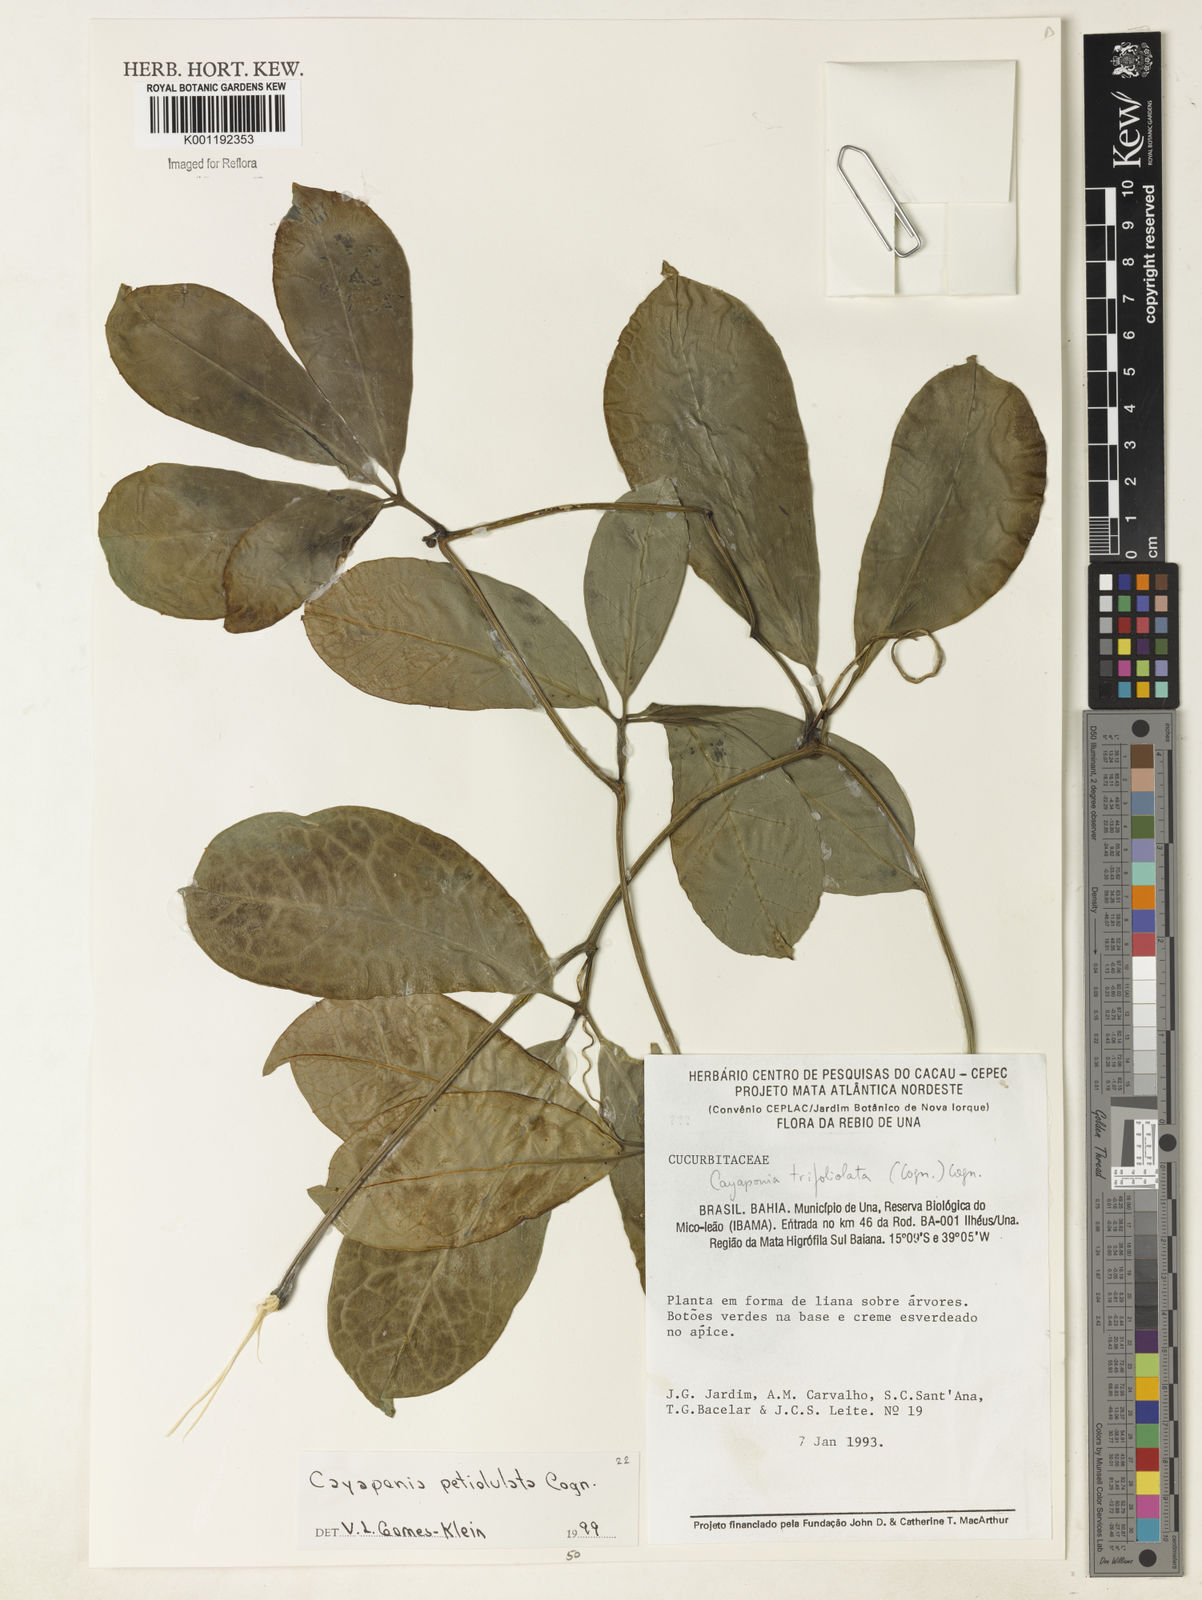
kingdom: Plantae
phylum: Tracheophyta
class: Magnoliopsida
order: Cucurbitales
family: Cucurbitaceae
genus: Cayaponia
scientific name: Cayaponia petiolulata
